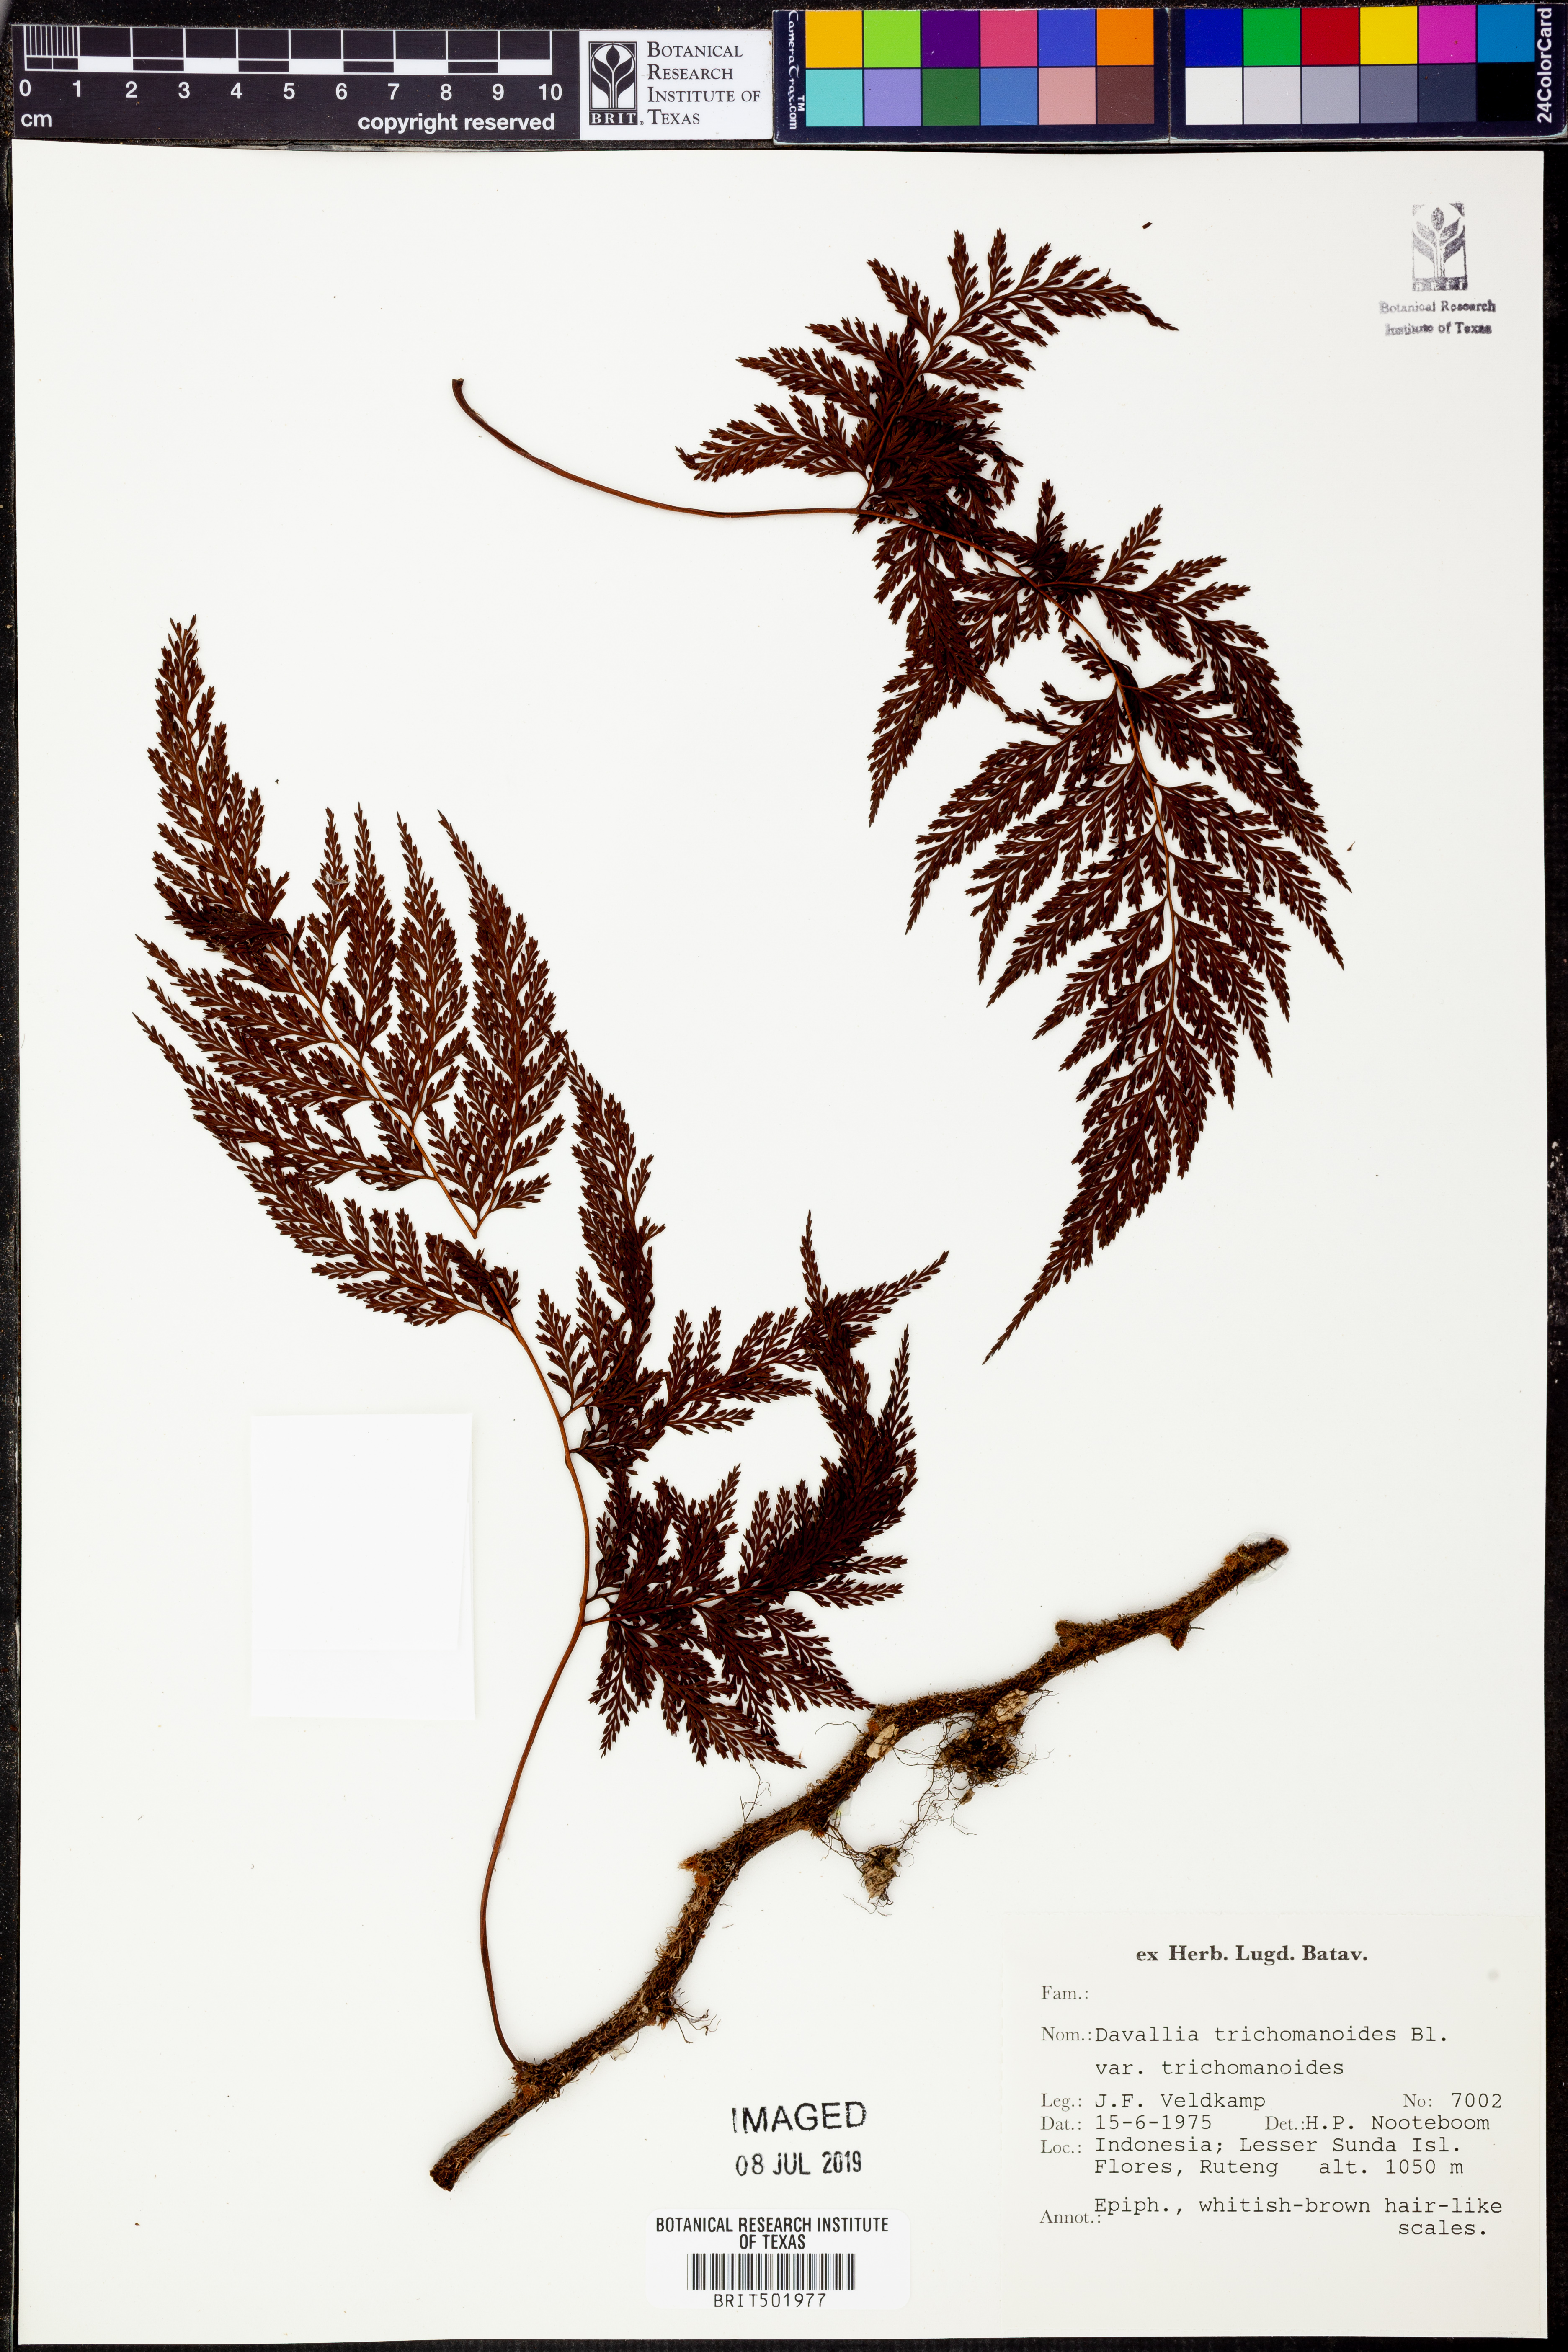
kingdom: Plantae
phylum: Tracheophyta
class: Polypodiopsida
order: Polypodiales
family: Davalliaceae
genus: Davallia
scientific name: Davallia trichomanoides
